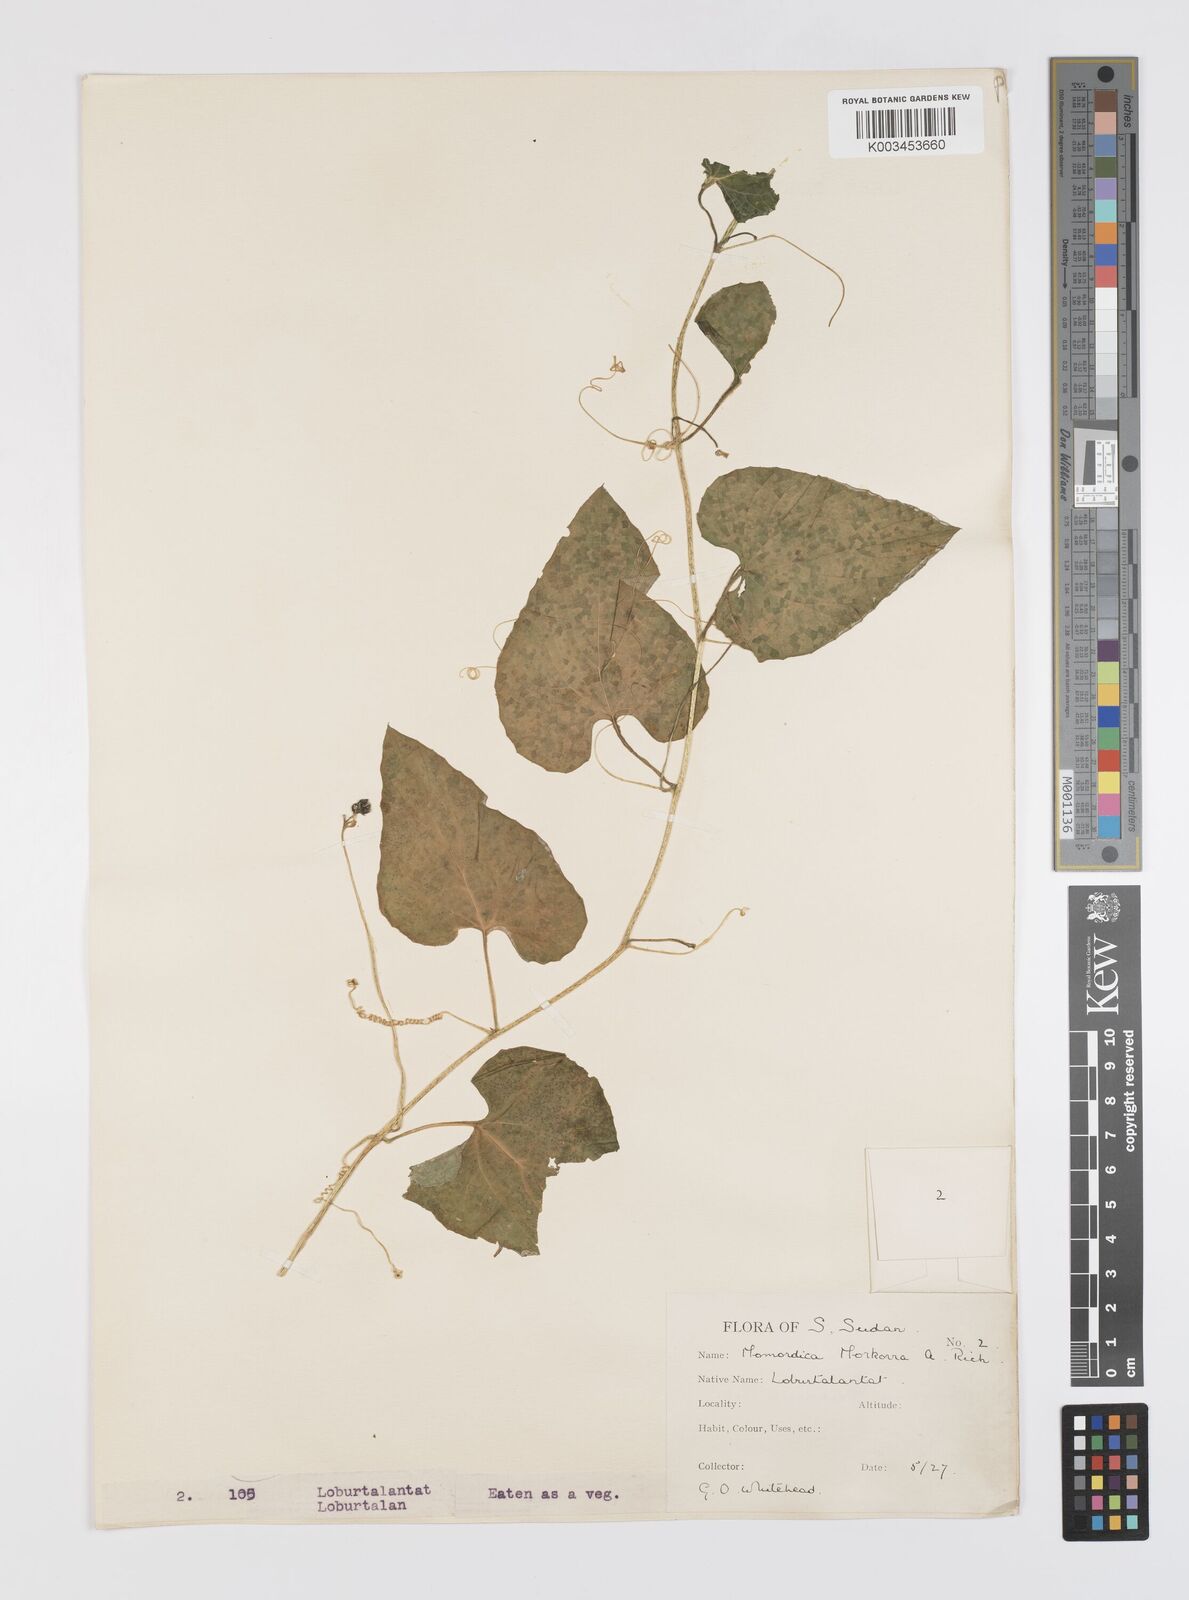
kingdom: Plantae
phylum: Tracheophyta
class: Magnoliopsida
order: Cucurbitales
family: Cucurbitaceae
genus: Momordica
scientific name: Momordica foetida
